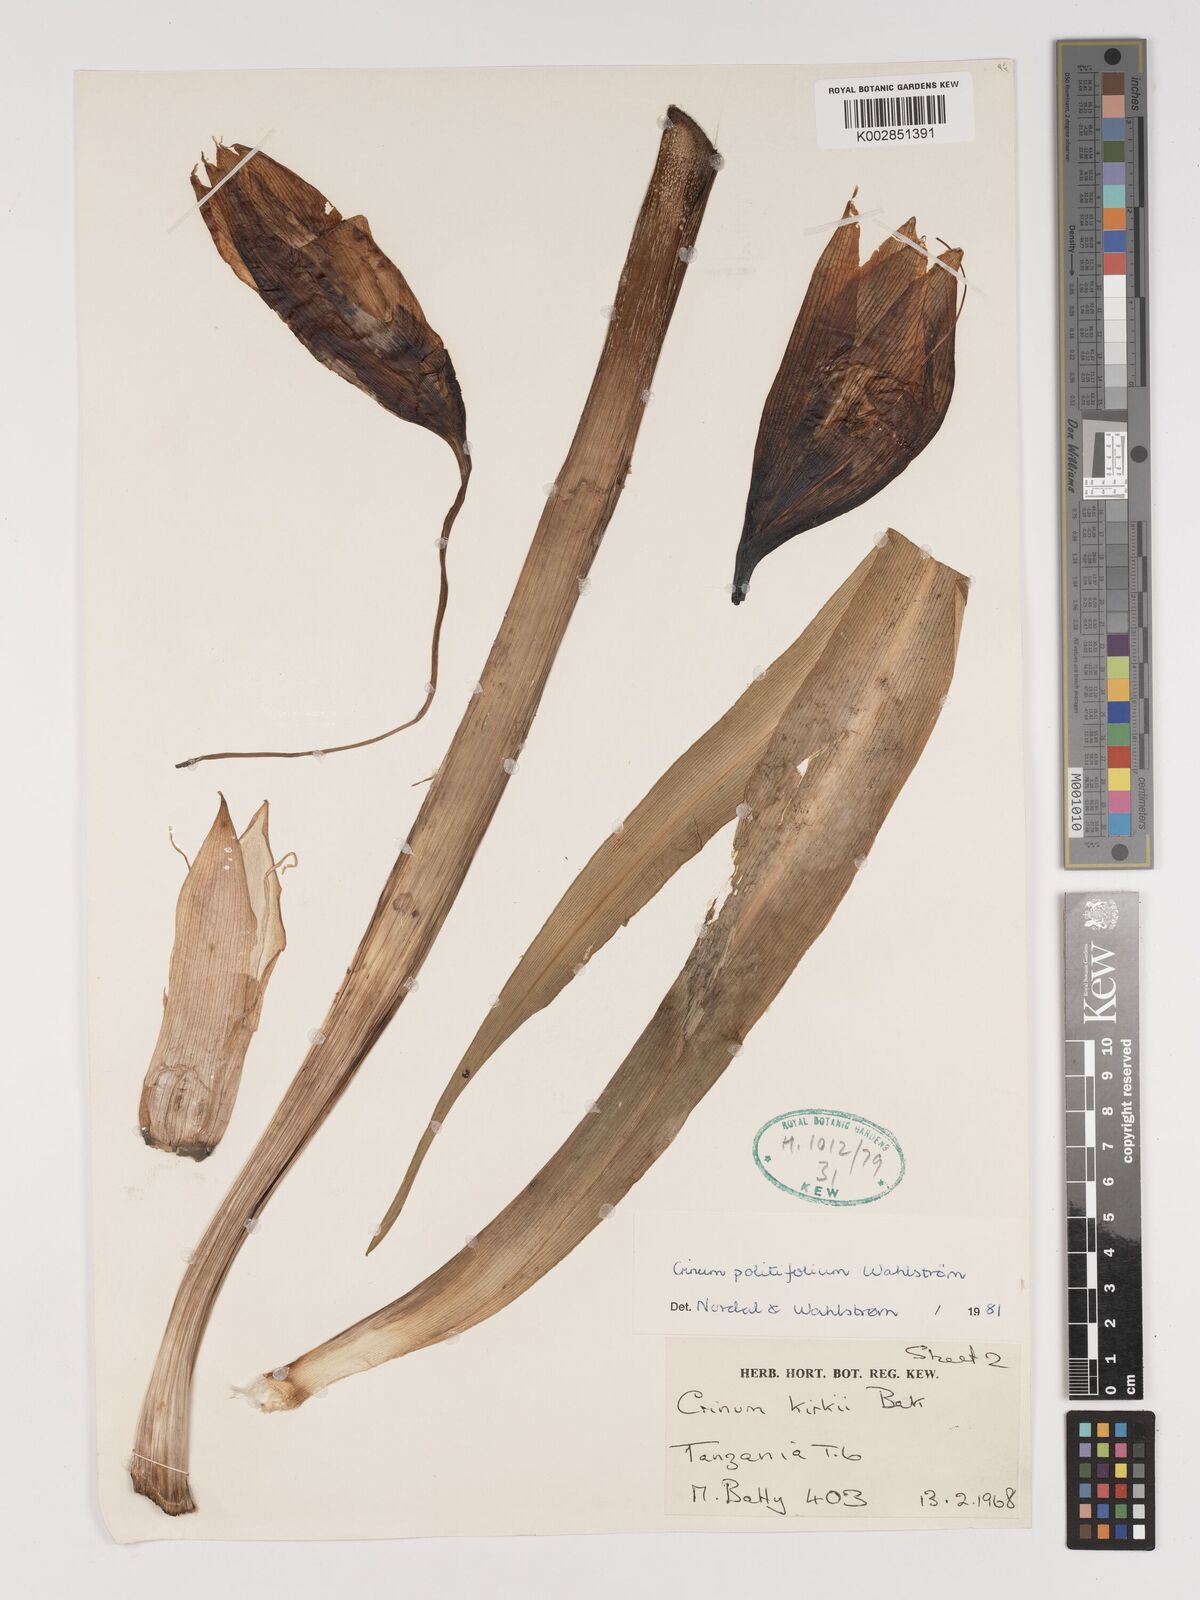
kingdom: Plantae
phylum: Tracheophyta
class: Liliopsida
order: Asparagales
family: Amaryllidaceae
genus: Crinum
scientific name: Crinum politifolium
